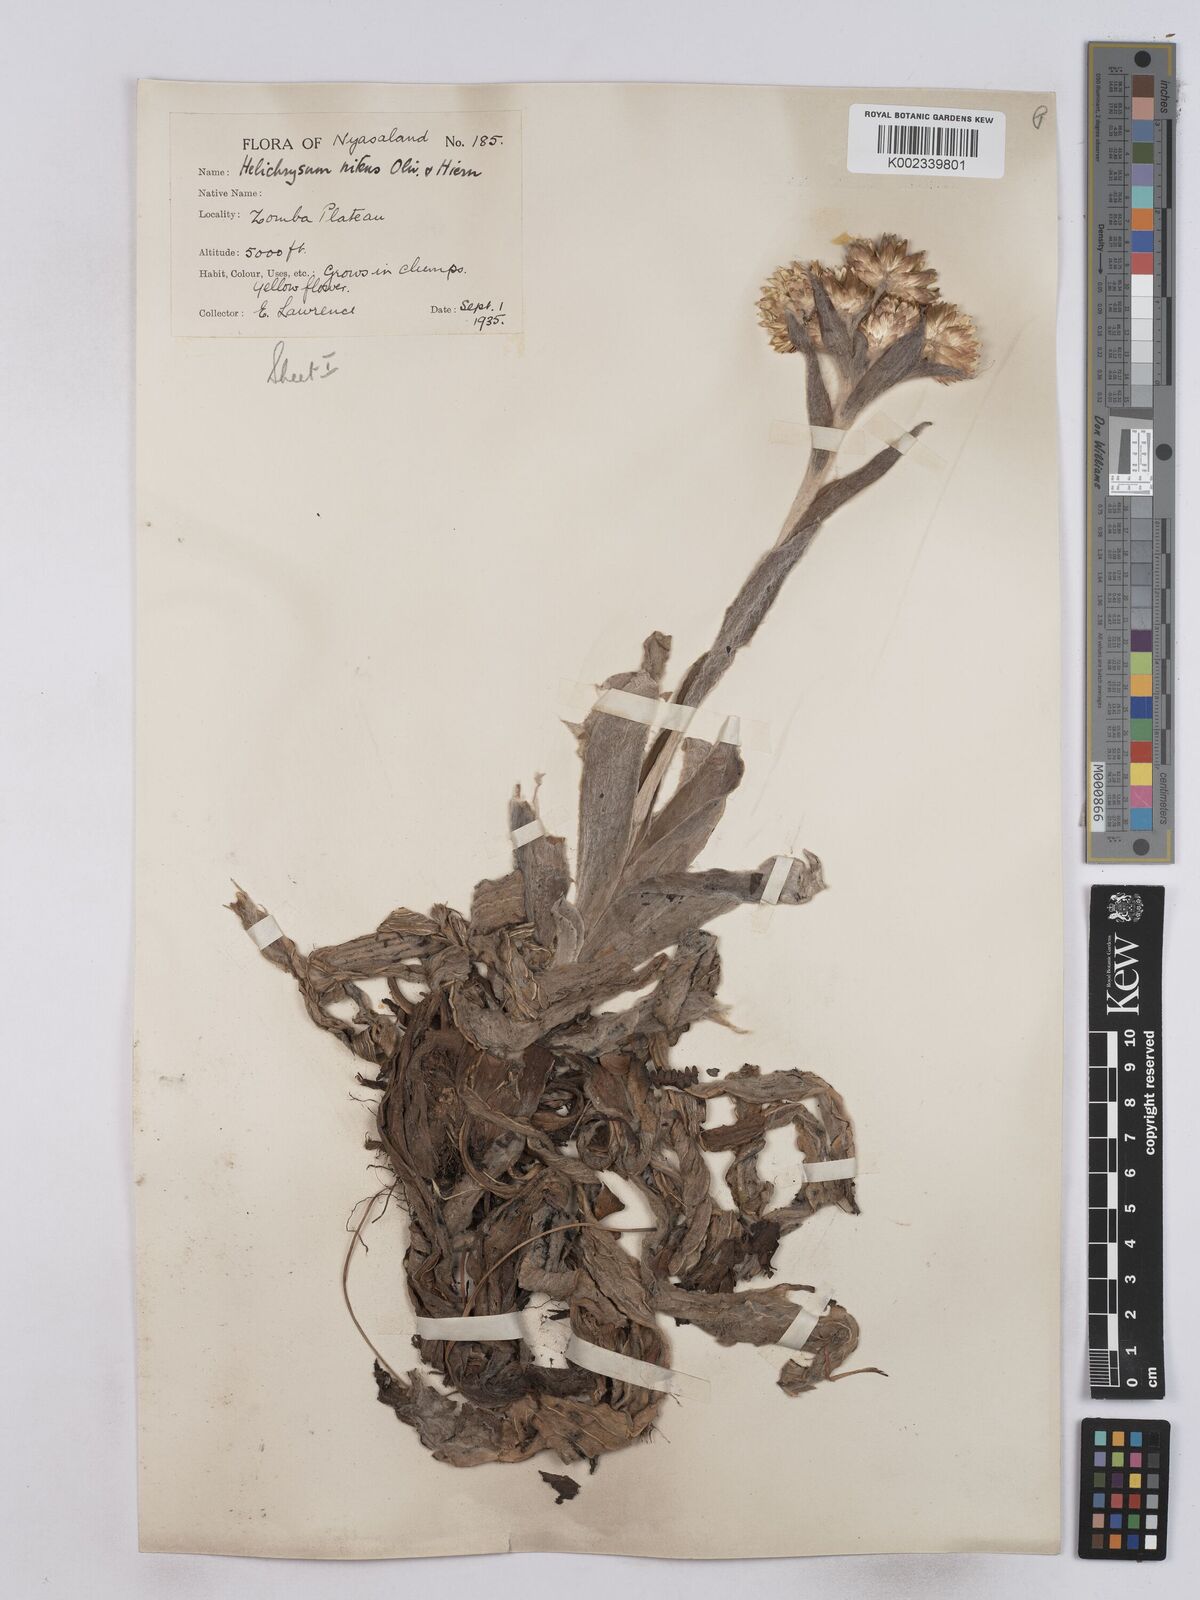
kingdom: Plantae
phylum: Tracheophyta
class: Magnoliopsida
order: Asterales
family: Asteraceae
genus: Helichrysum
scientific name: Helichrysum nitens
